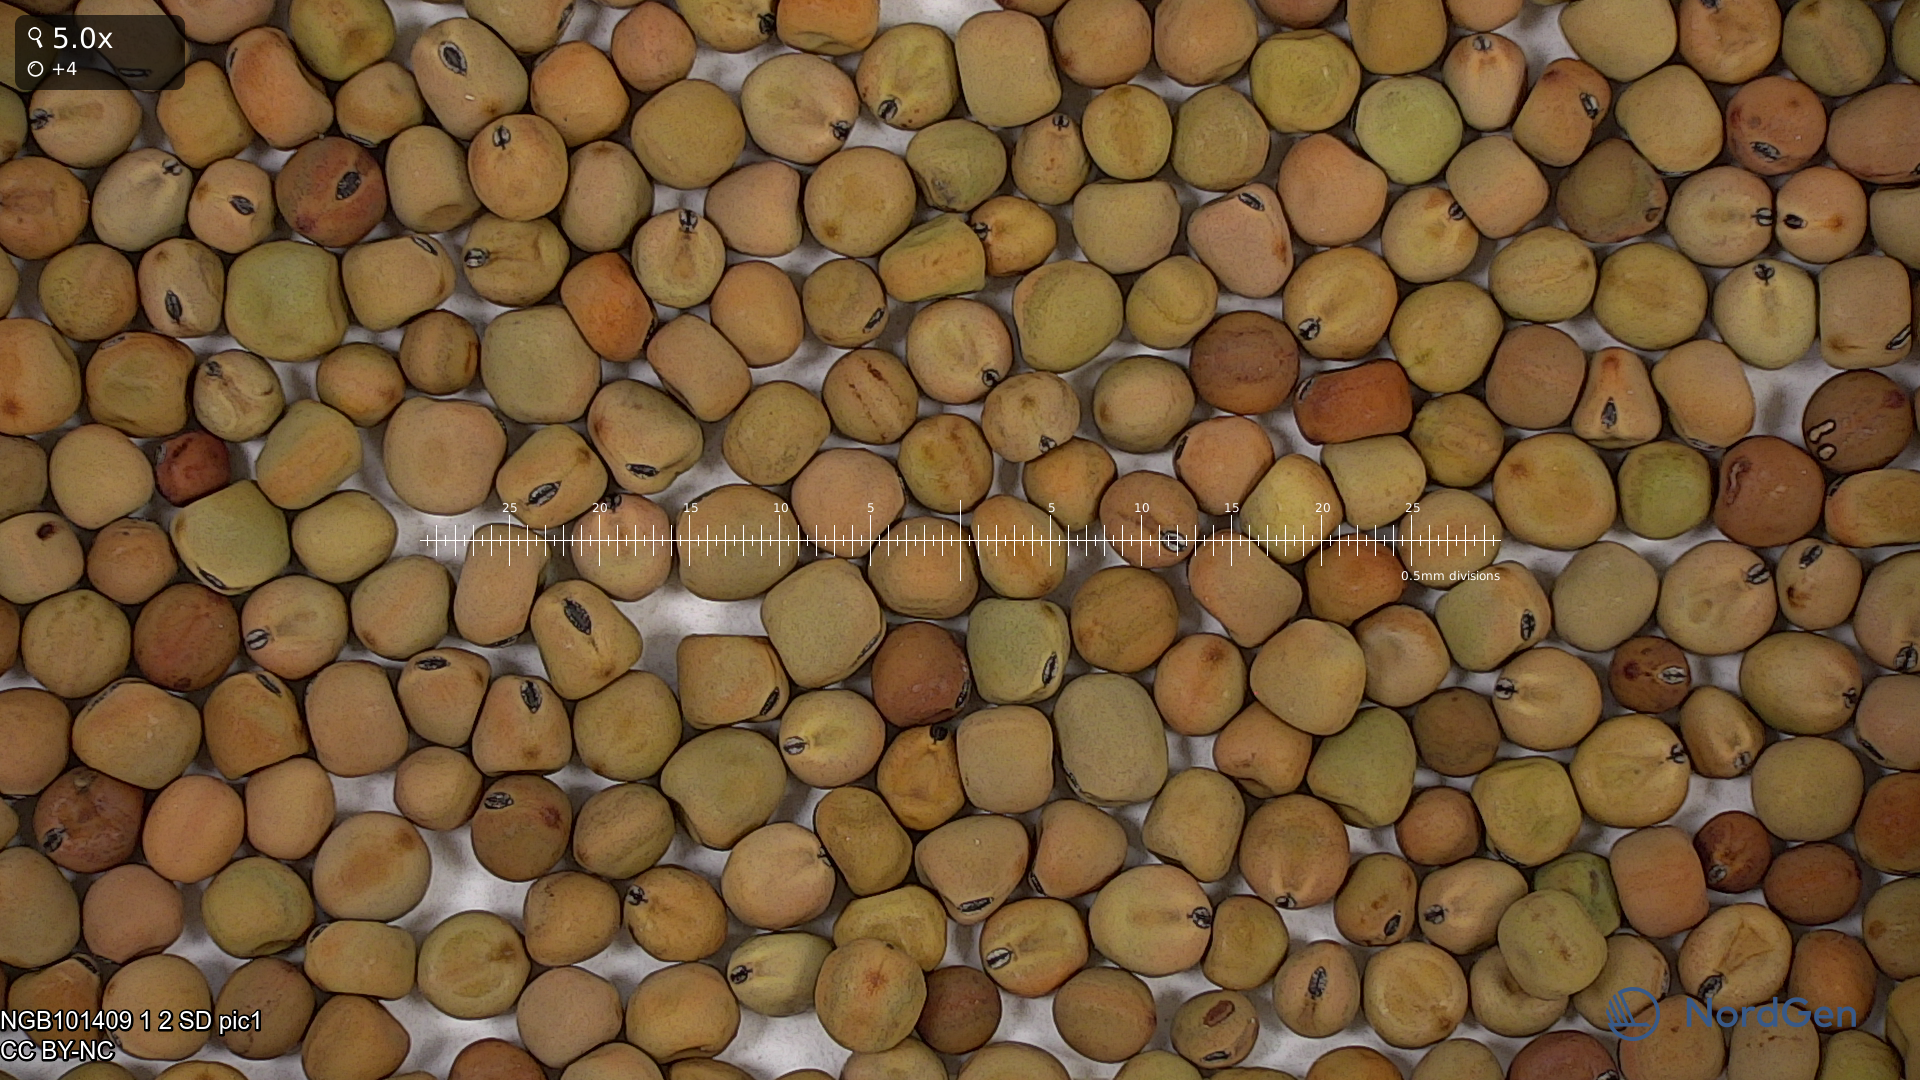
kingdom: Plantae
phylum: Tracheophyta
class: Magnoliopsida
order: Fabales
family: Fabaceae
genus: Lathyrus
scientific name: Lathyrus oleraceus
